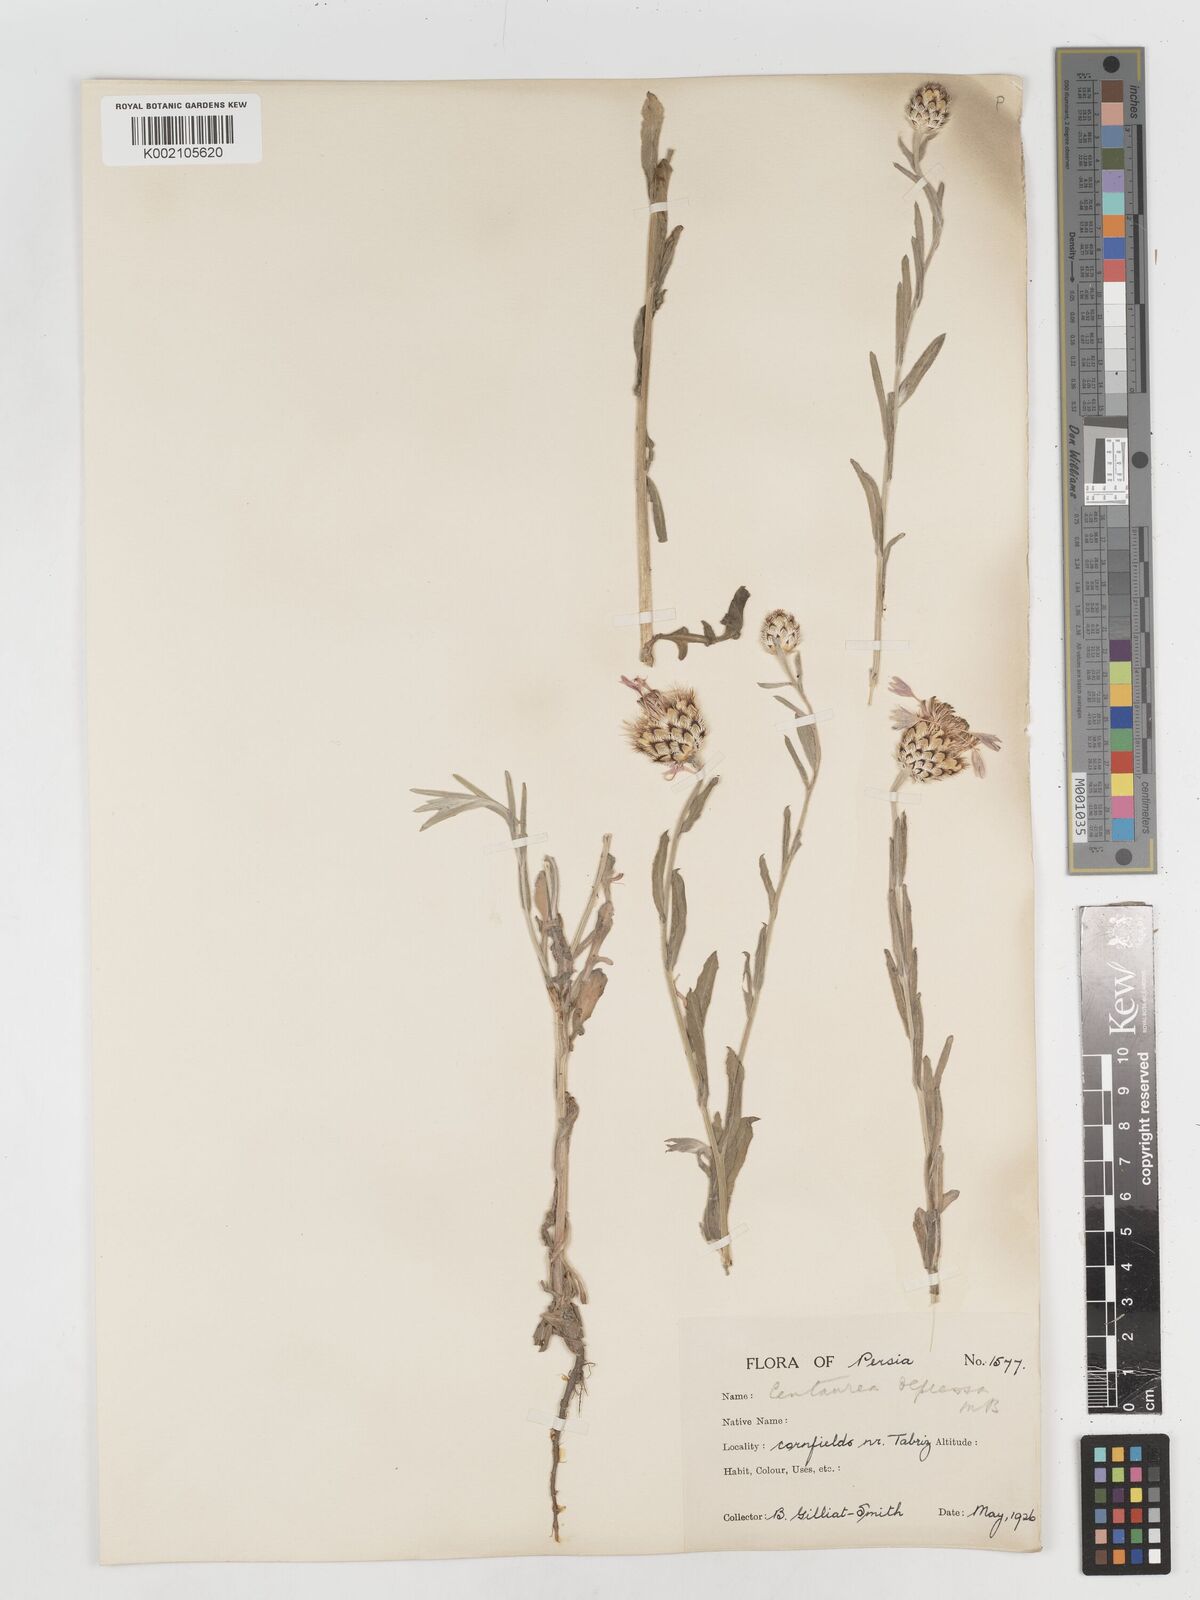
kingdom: Plantae
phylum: Tracheophyta
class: Magnoliopsida
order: Asterales
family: Asteraceae
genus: Centaurea
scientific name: Centaurea depressa
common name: Iranian knapweed
